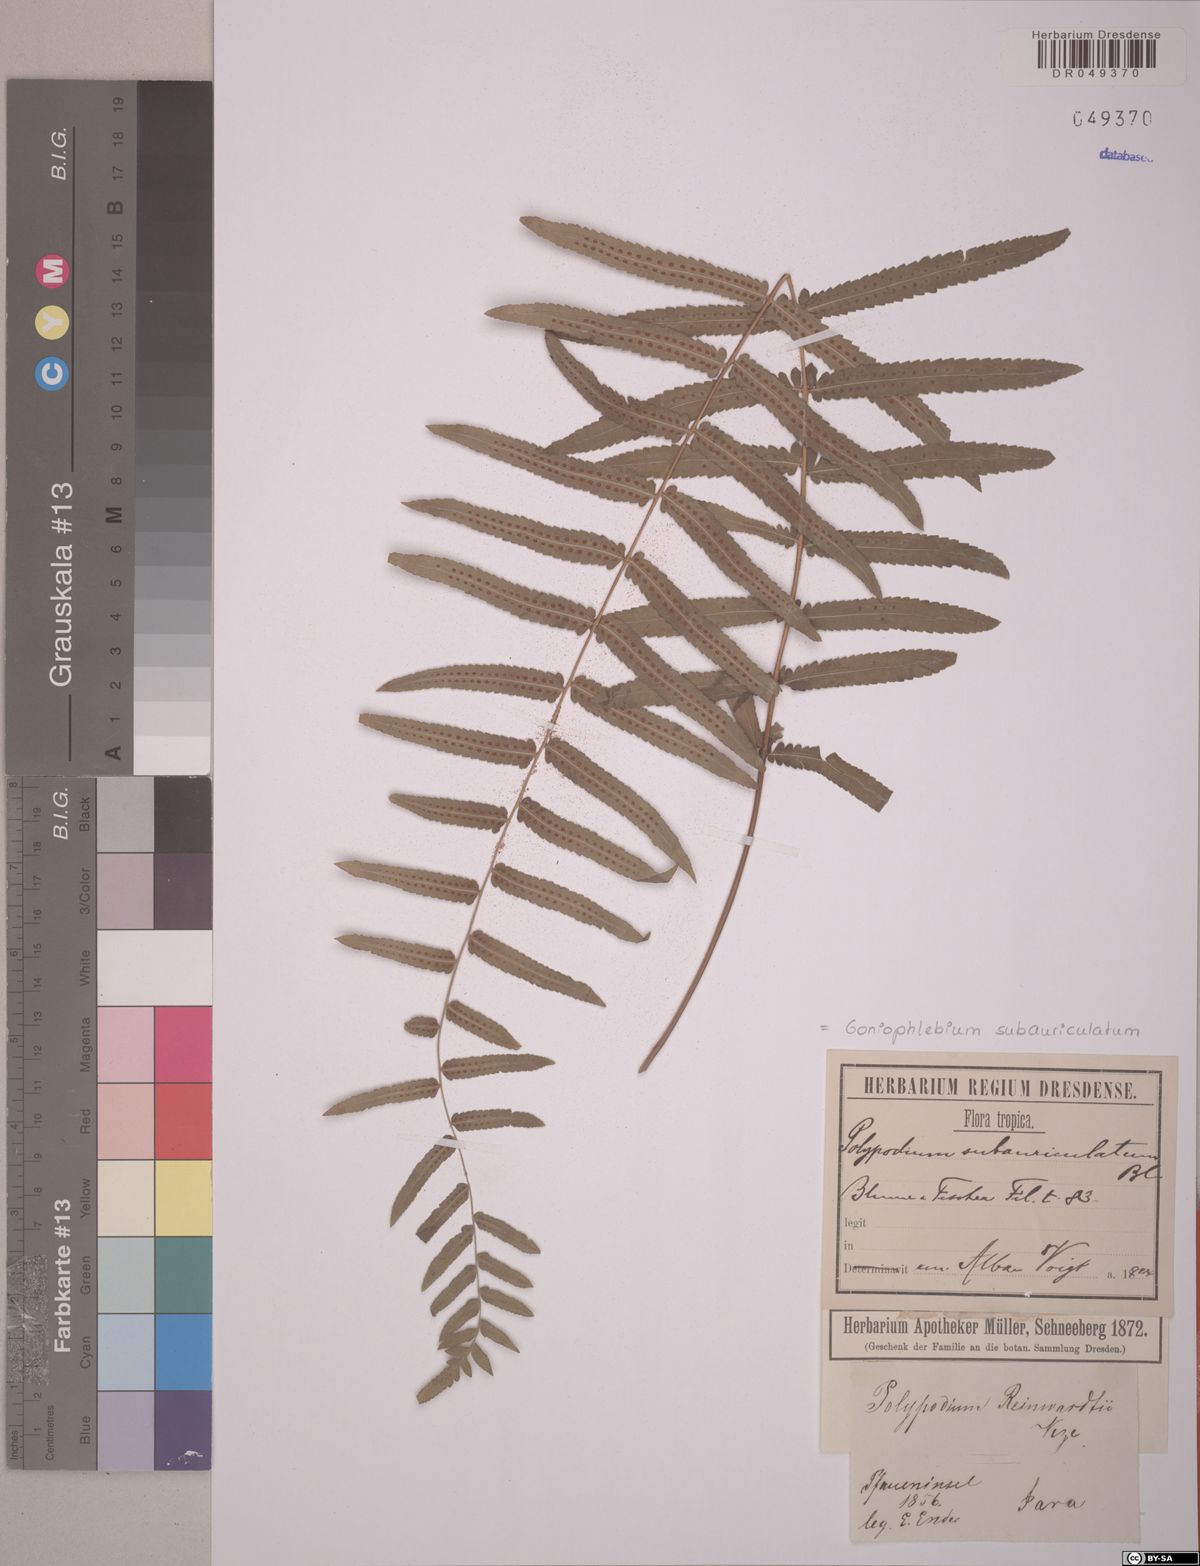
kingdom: Plantae
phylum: Tracheophyta
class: Polypodiopsida
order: Polypodiales
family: Polypodiaceae
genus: Goniophlebium
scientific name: Goniophlebium subauriculatum
